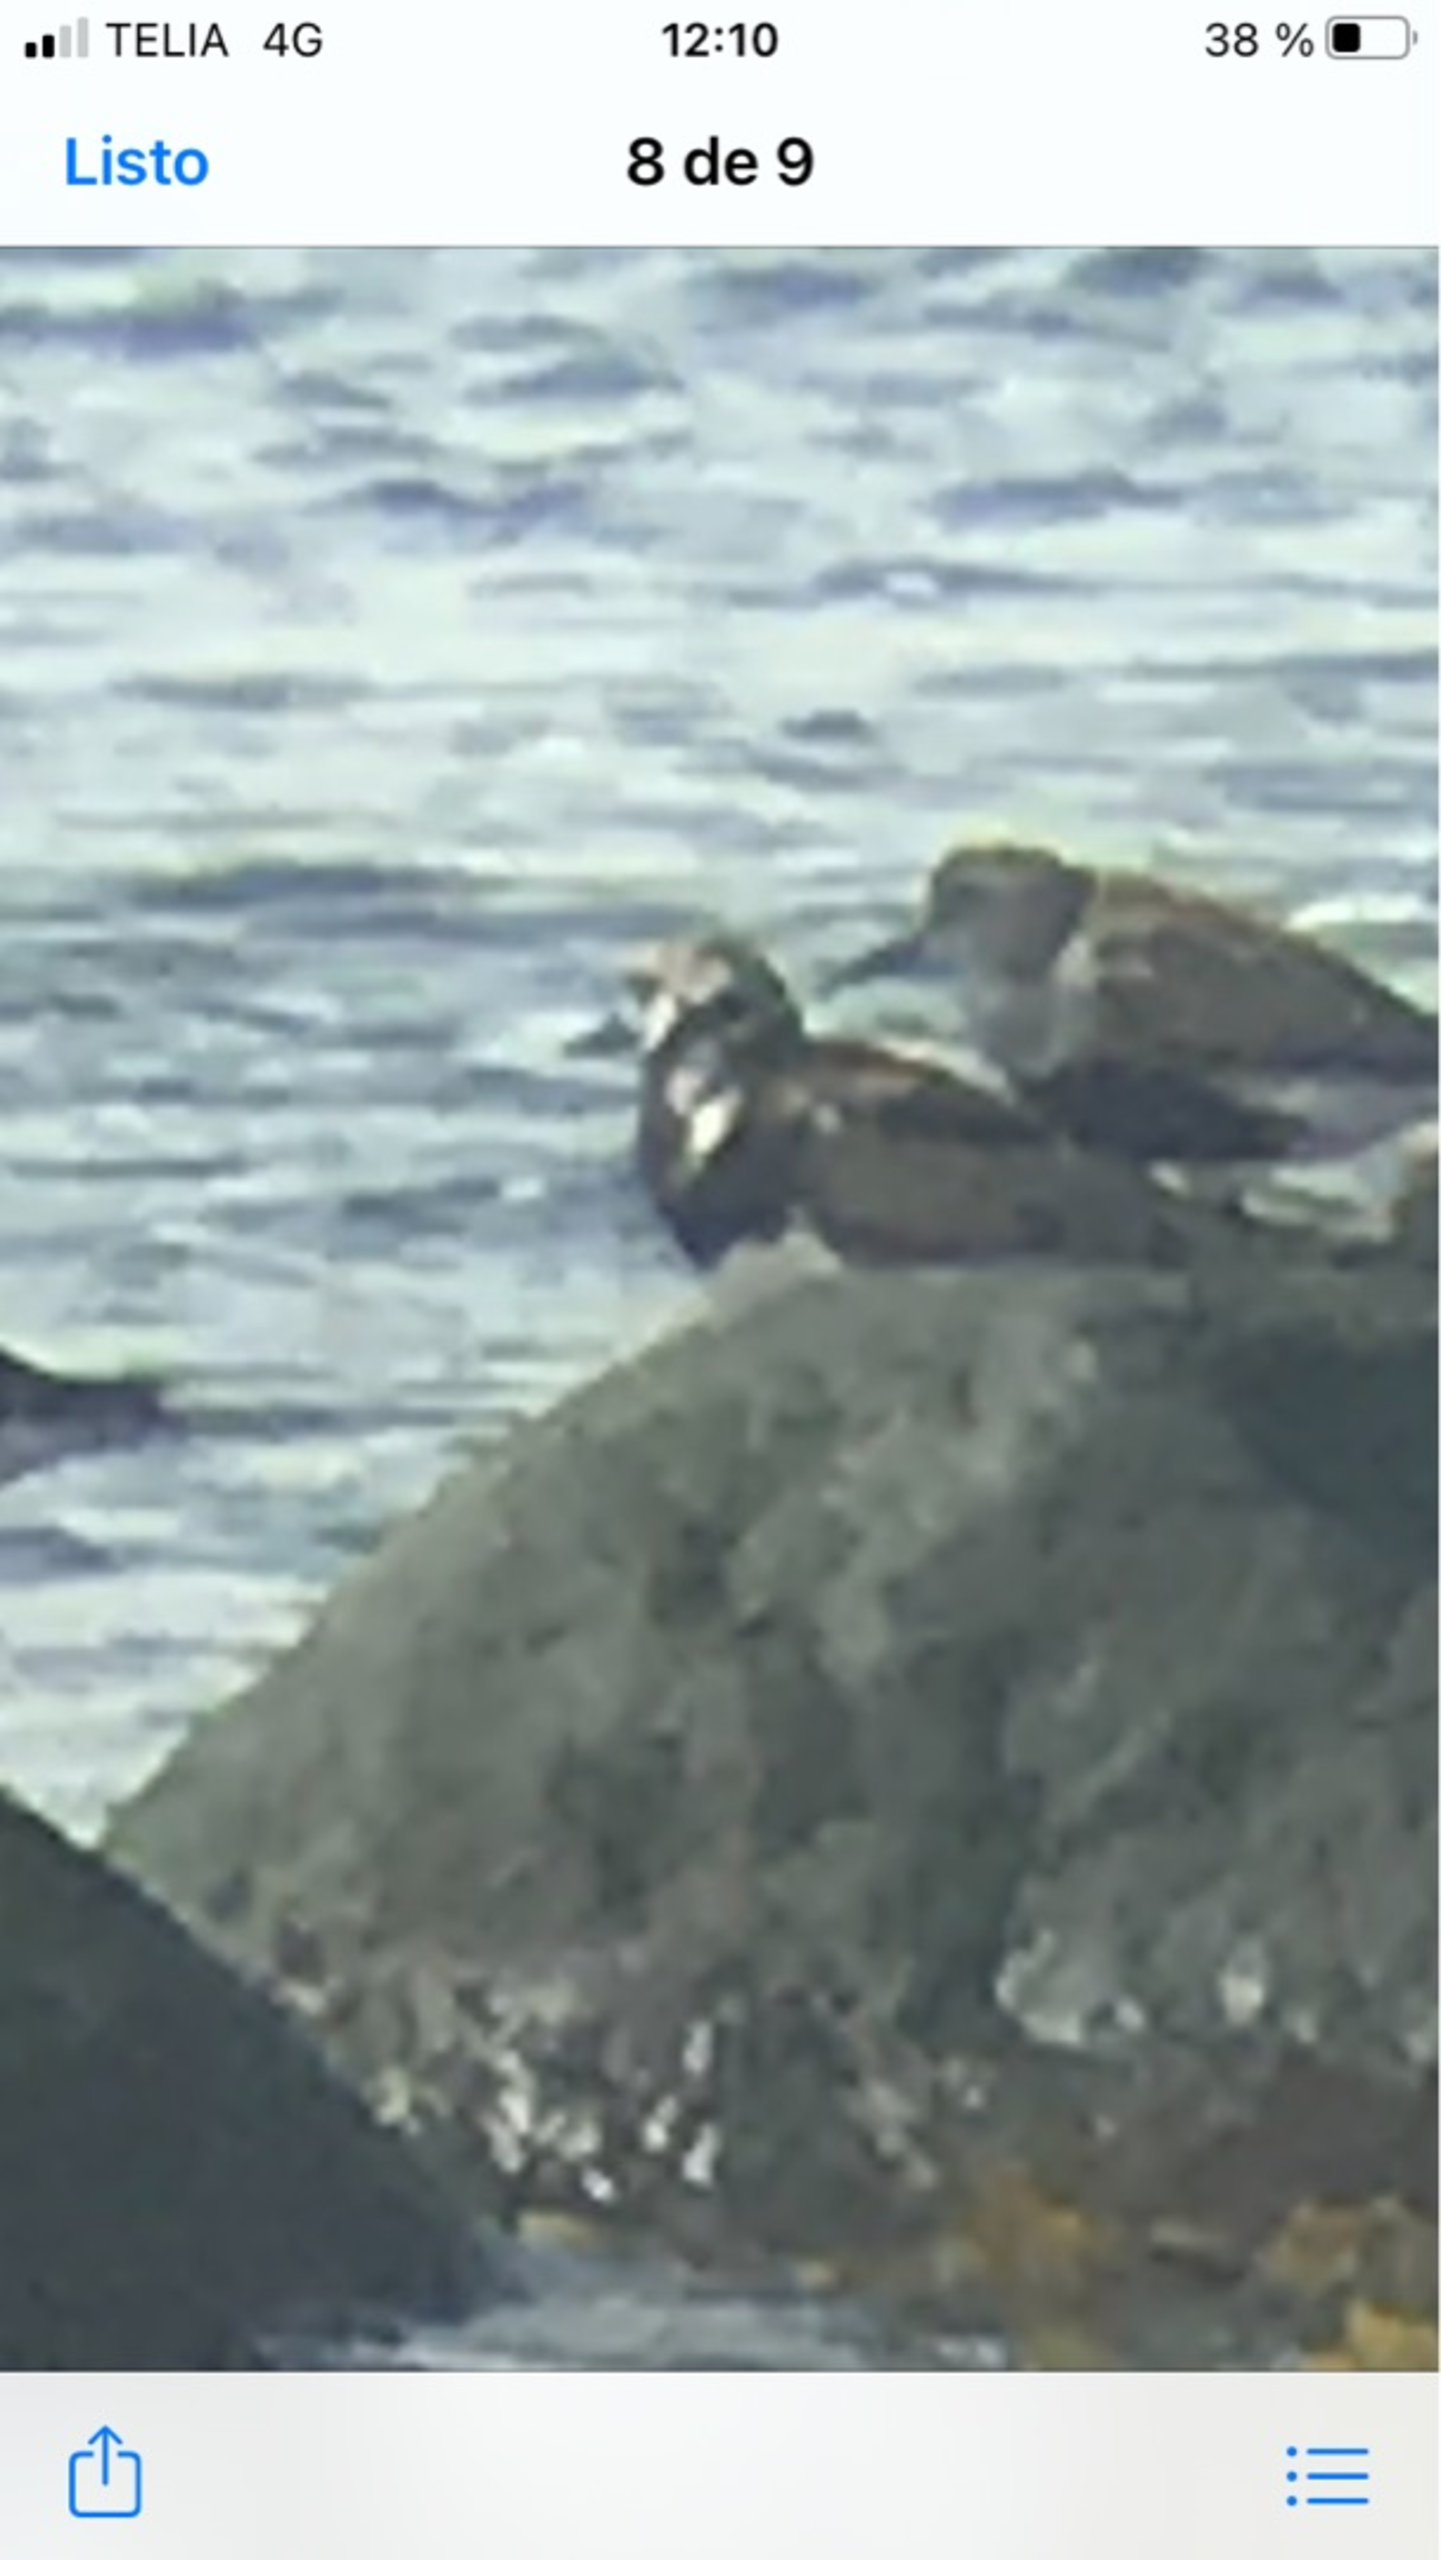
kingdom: Animalia
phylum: Chordata
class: Aves
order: Charadriiformes
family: Scolopacidae
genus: Arenaria
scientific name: Arenaria interpres
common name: Stenvender
